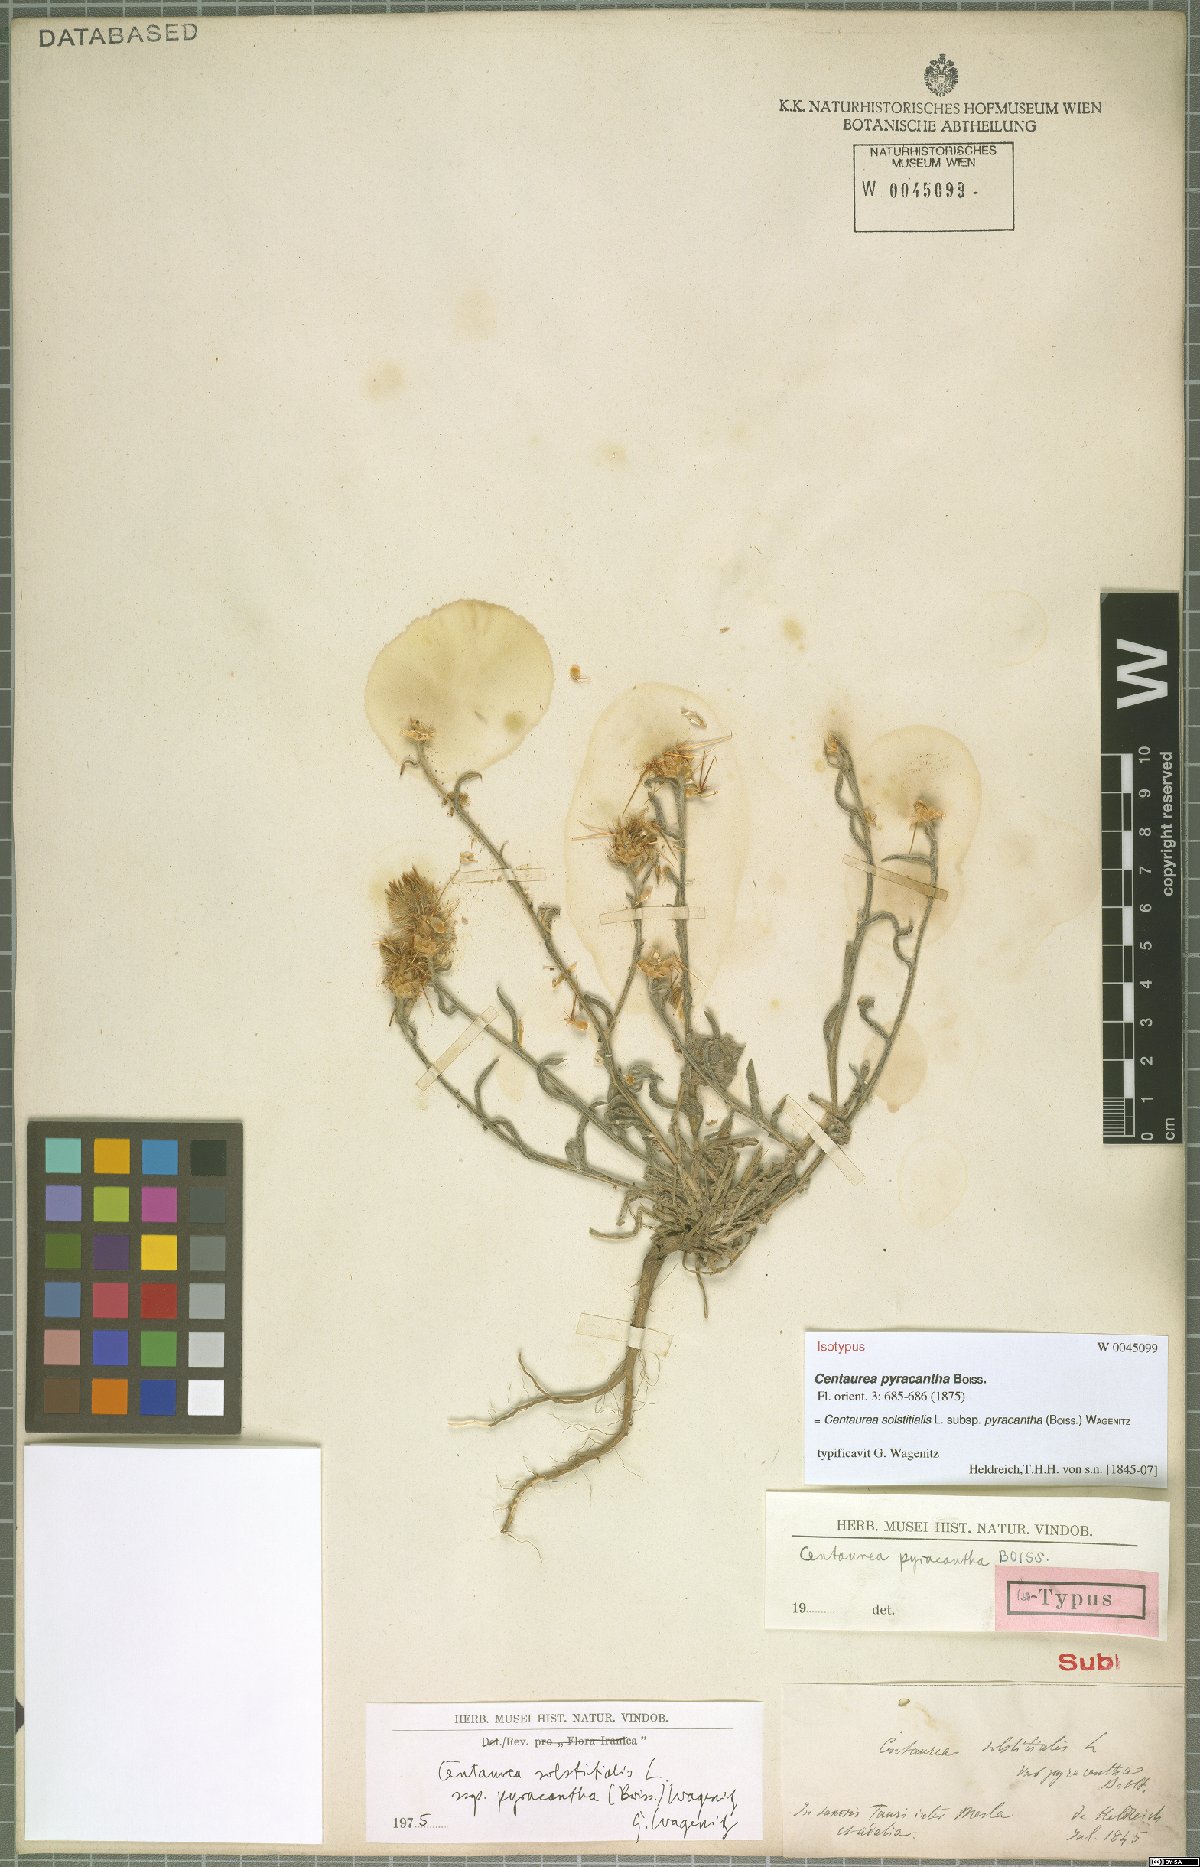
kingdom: Plantae
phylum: Tracheophyta
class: Magnoliopsida
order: Asterales
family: Asteraceae
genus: Centaurea
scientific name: Centaurea solstitialis
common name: Yellow star-thistle
